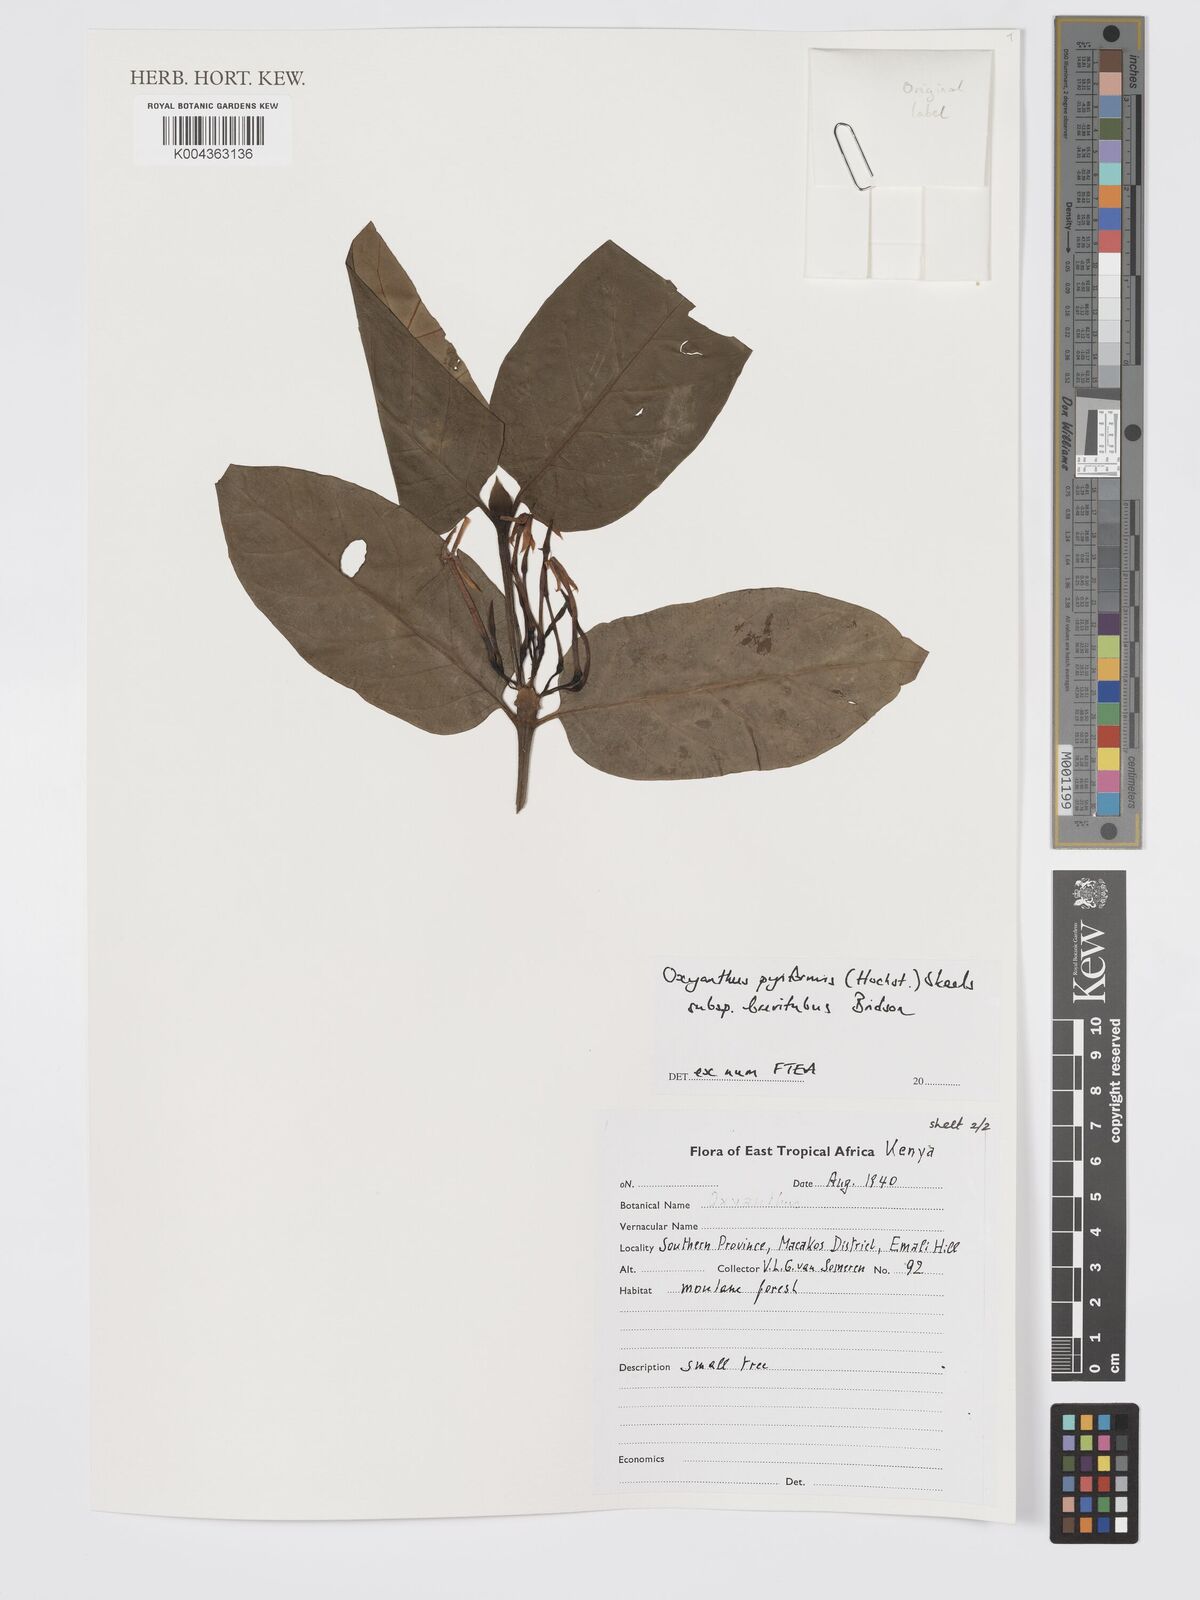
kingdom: Plantae
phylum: Tracheophyta
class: Magnoliopsida
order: Gentianales
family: Rubiaceae
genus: Oxyanthus
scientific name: Oxyanthus pyriformis
